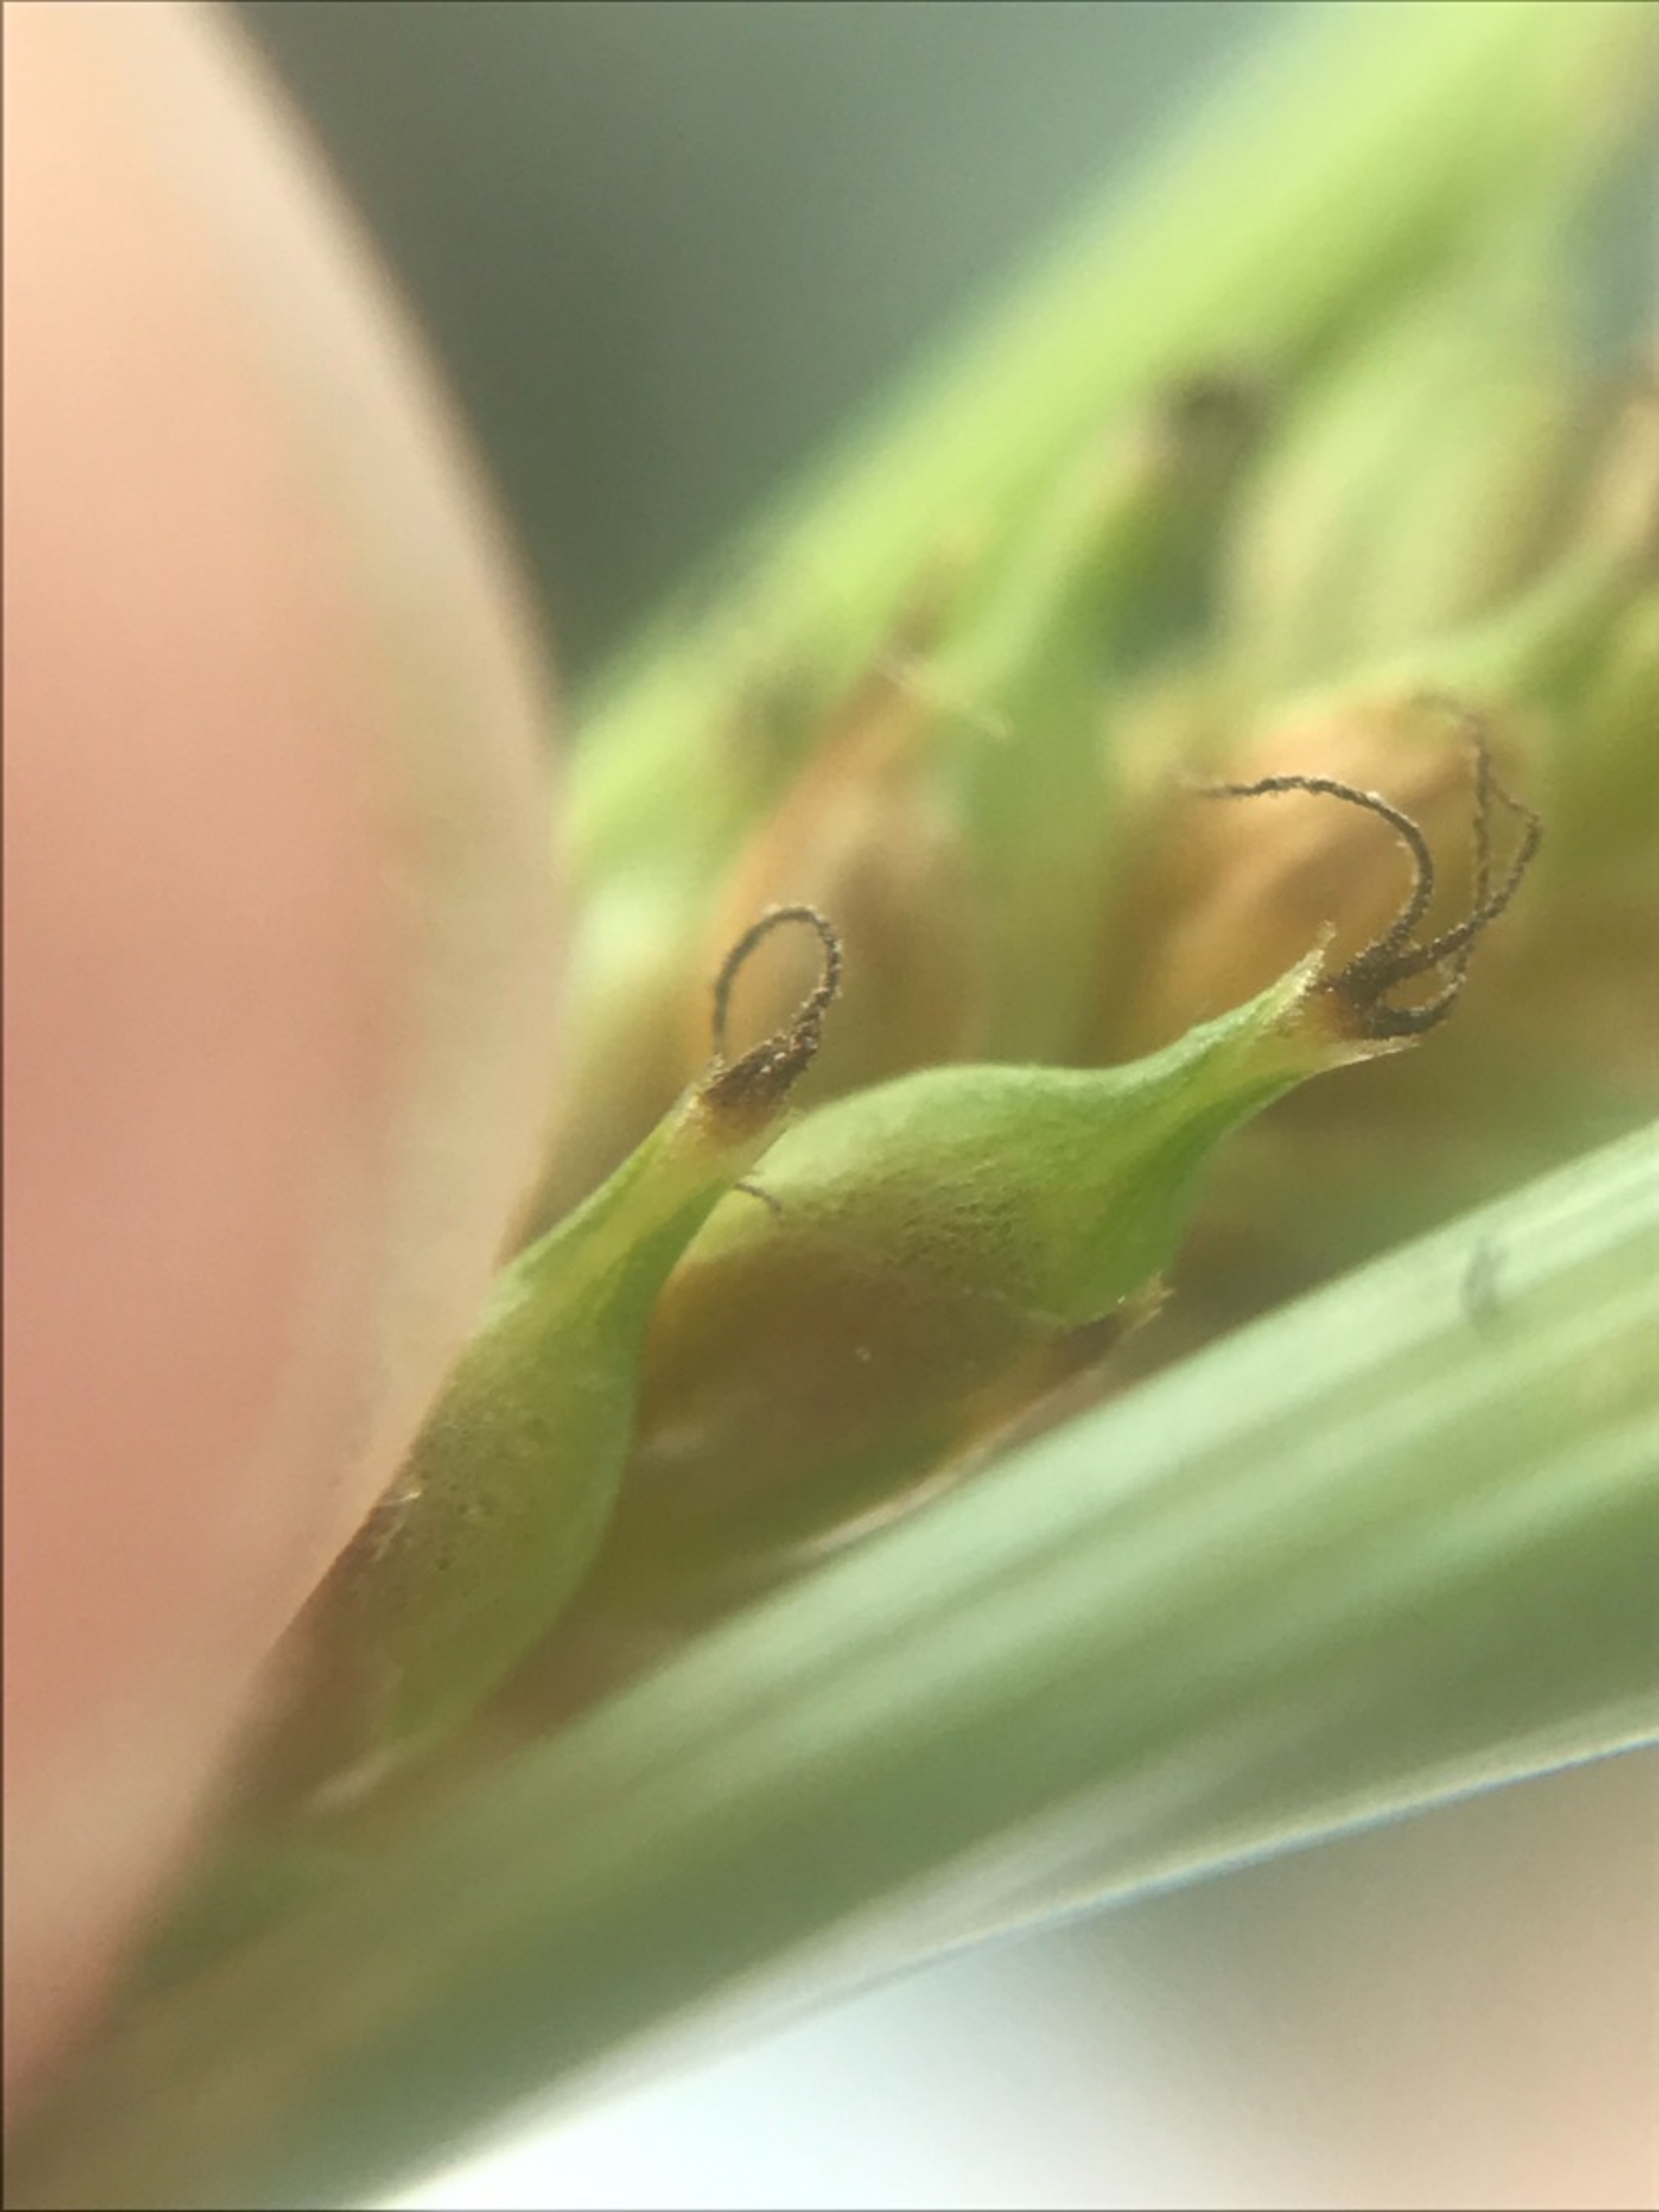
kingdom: Plantae
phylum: Tracheophyta
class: Liliopsida
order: Poales
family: Cyperaceae
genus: Carex
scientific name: Carex distans
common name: Fjernakset star
